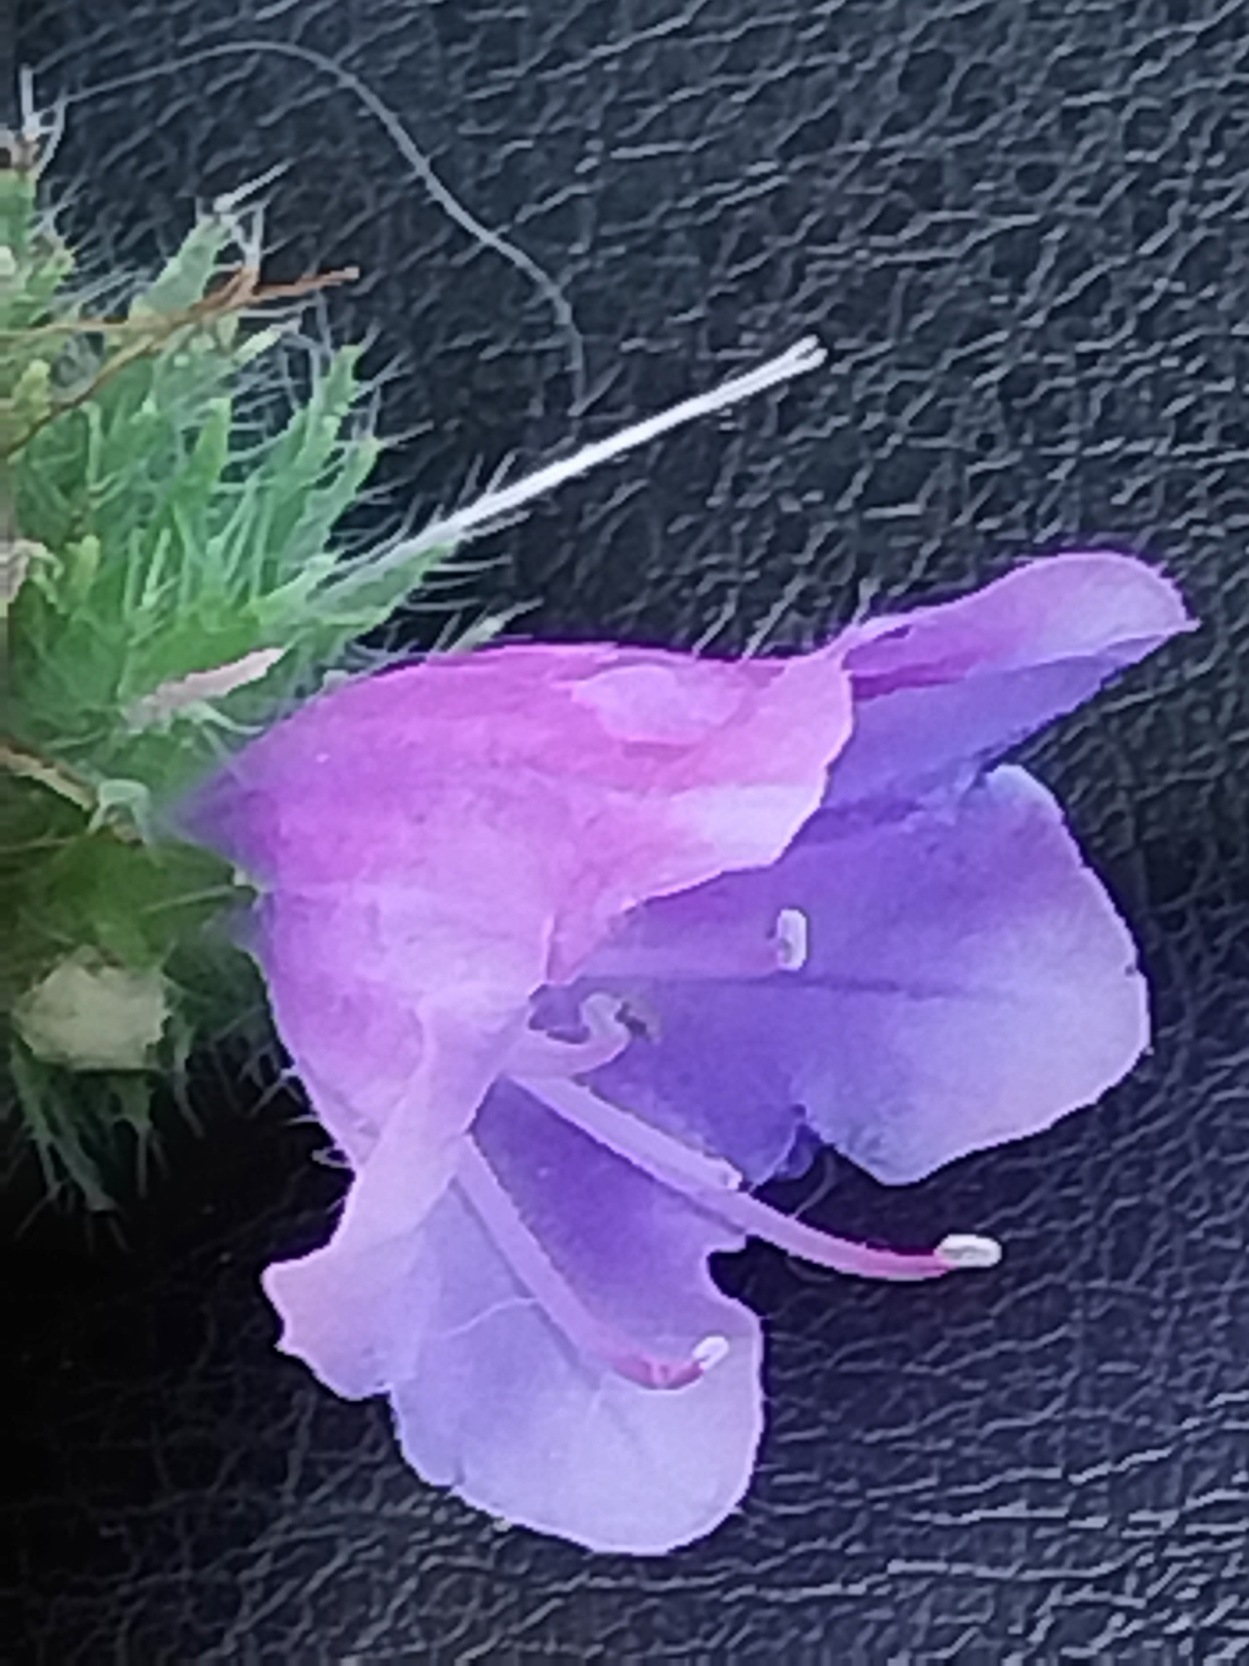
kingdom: Plantae
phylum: Tracheophyta
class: Magnoliopsida
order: Boraginales
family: Boraginaceae
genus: Echium
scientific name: Echium plantagineum
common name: Vejbred-slangehoved
